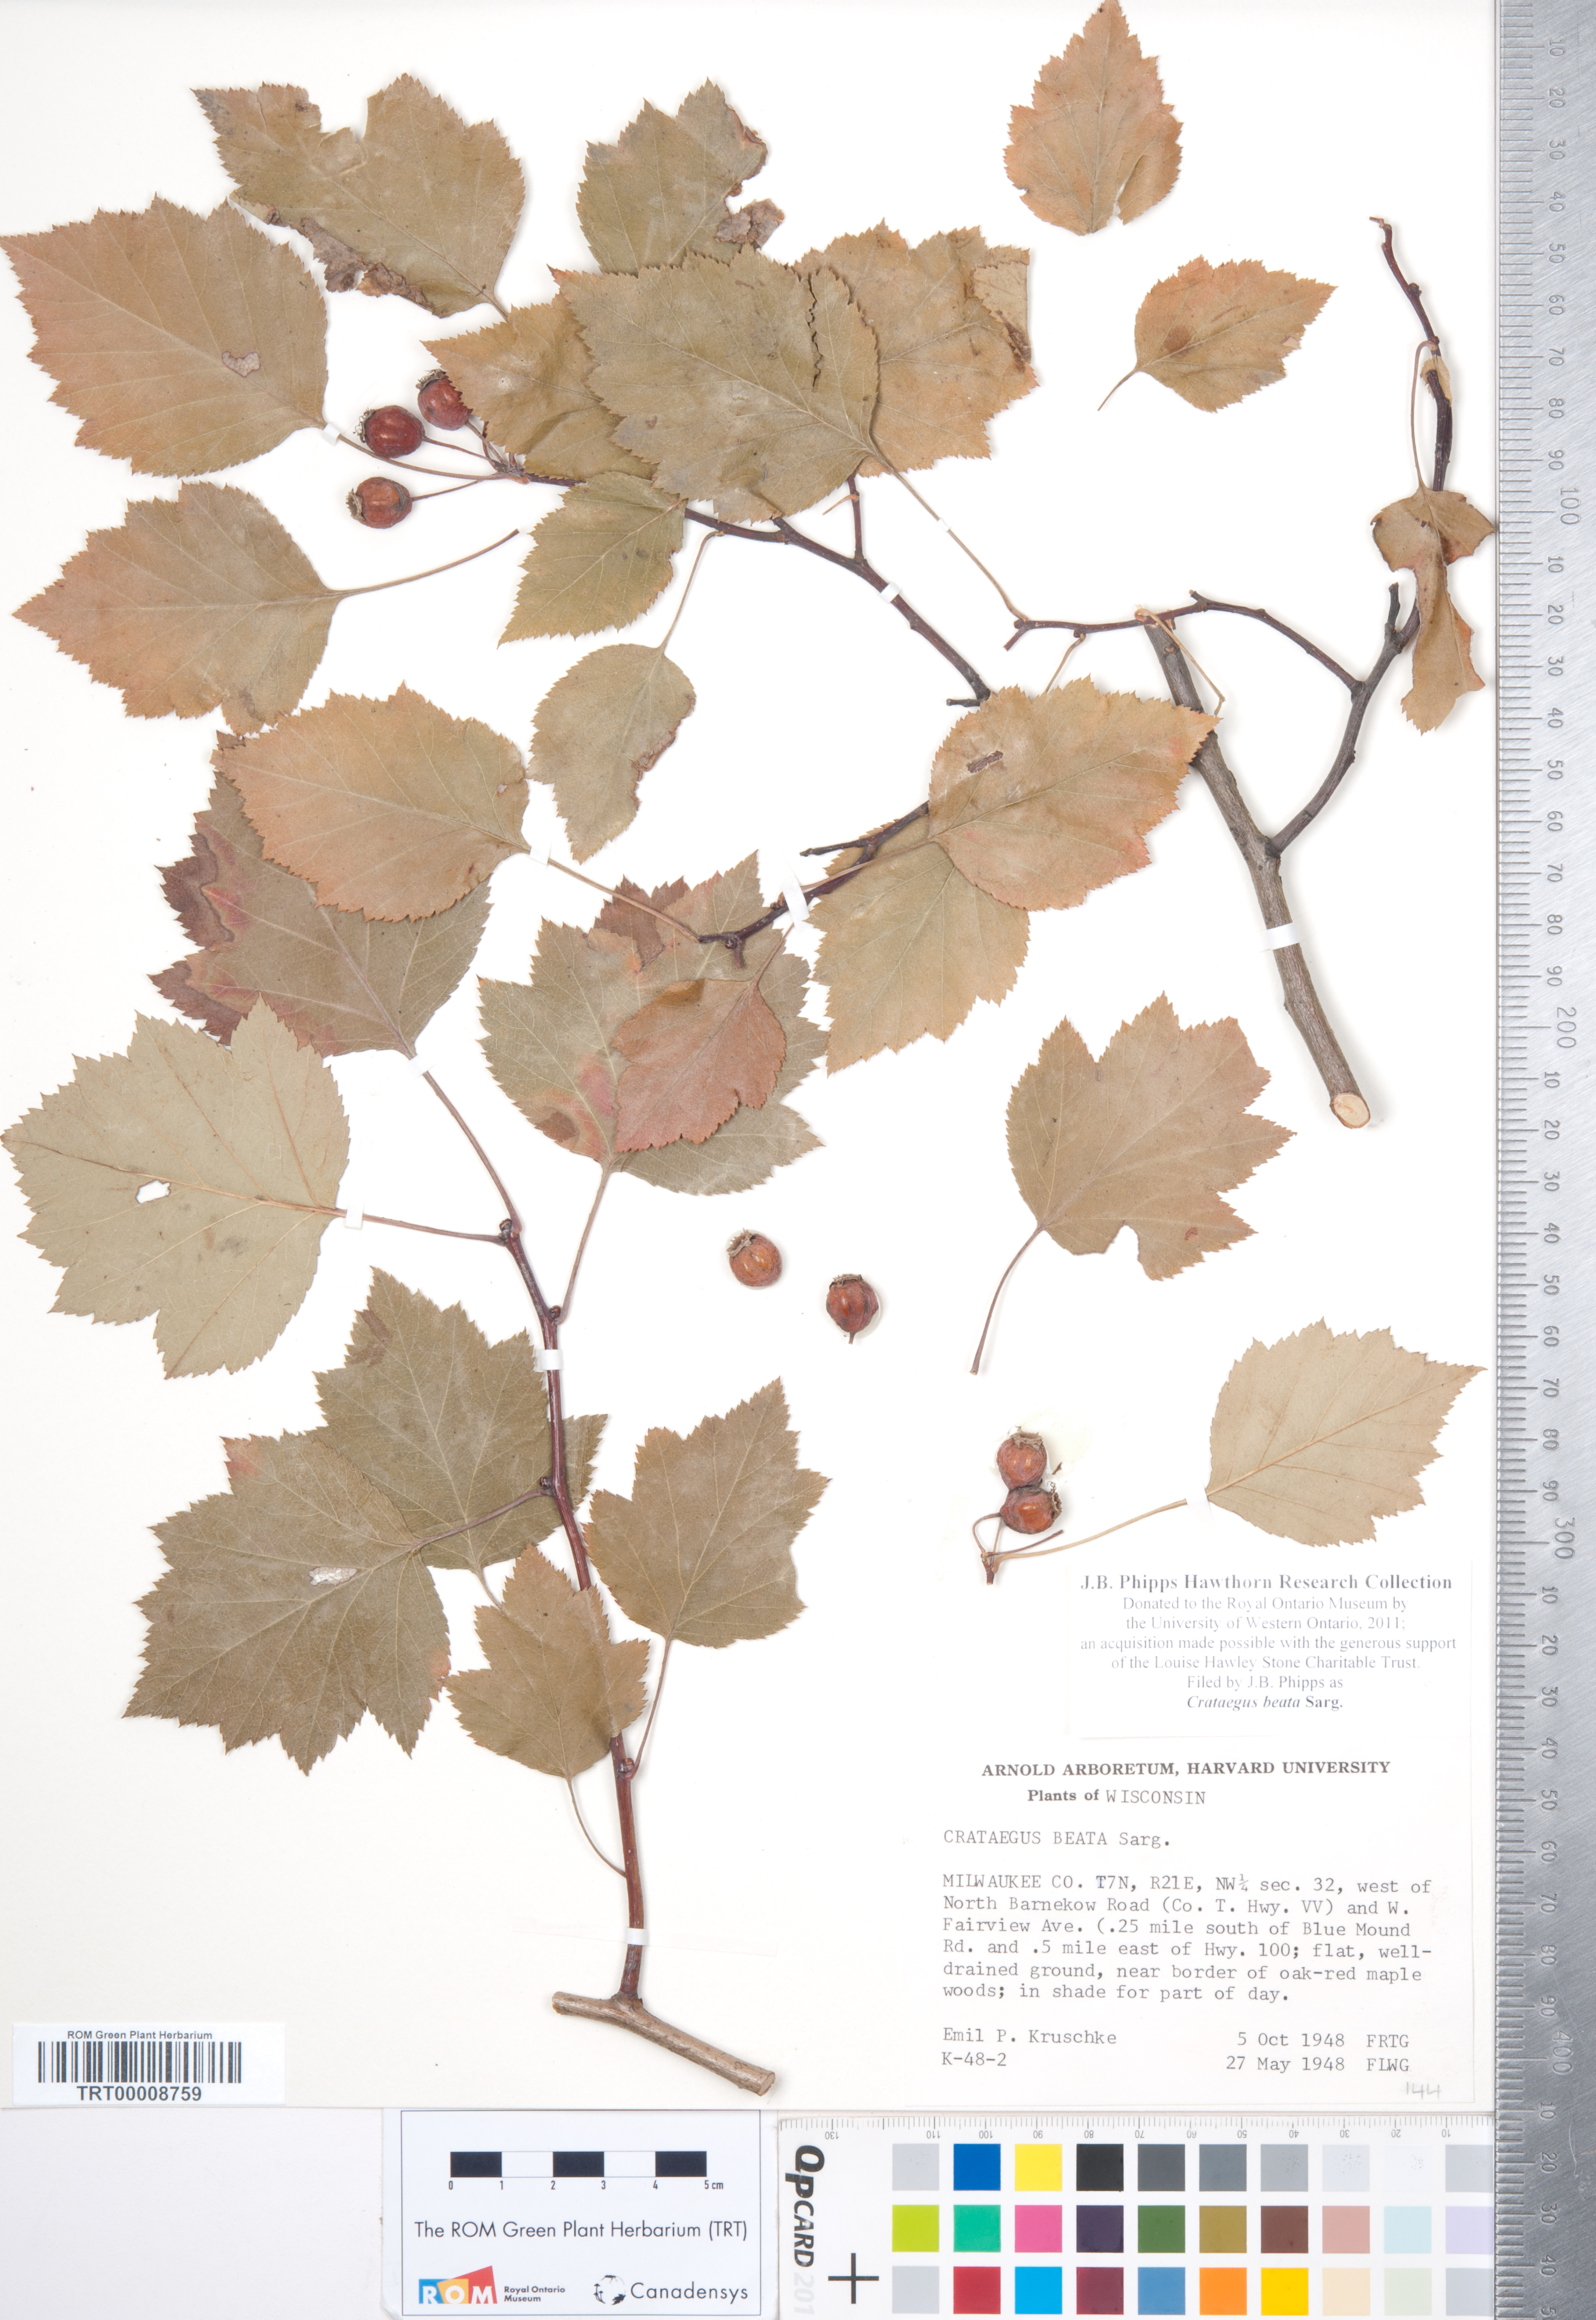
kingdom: Plantae
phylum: Tracheophyta
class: Magnoliopsida
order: Rosales
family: Rosaceae
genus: Crataegus
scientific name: Crataegus beata
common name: Dunbar's hawthorn
